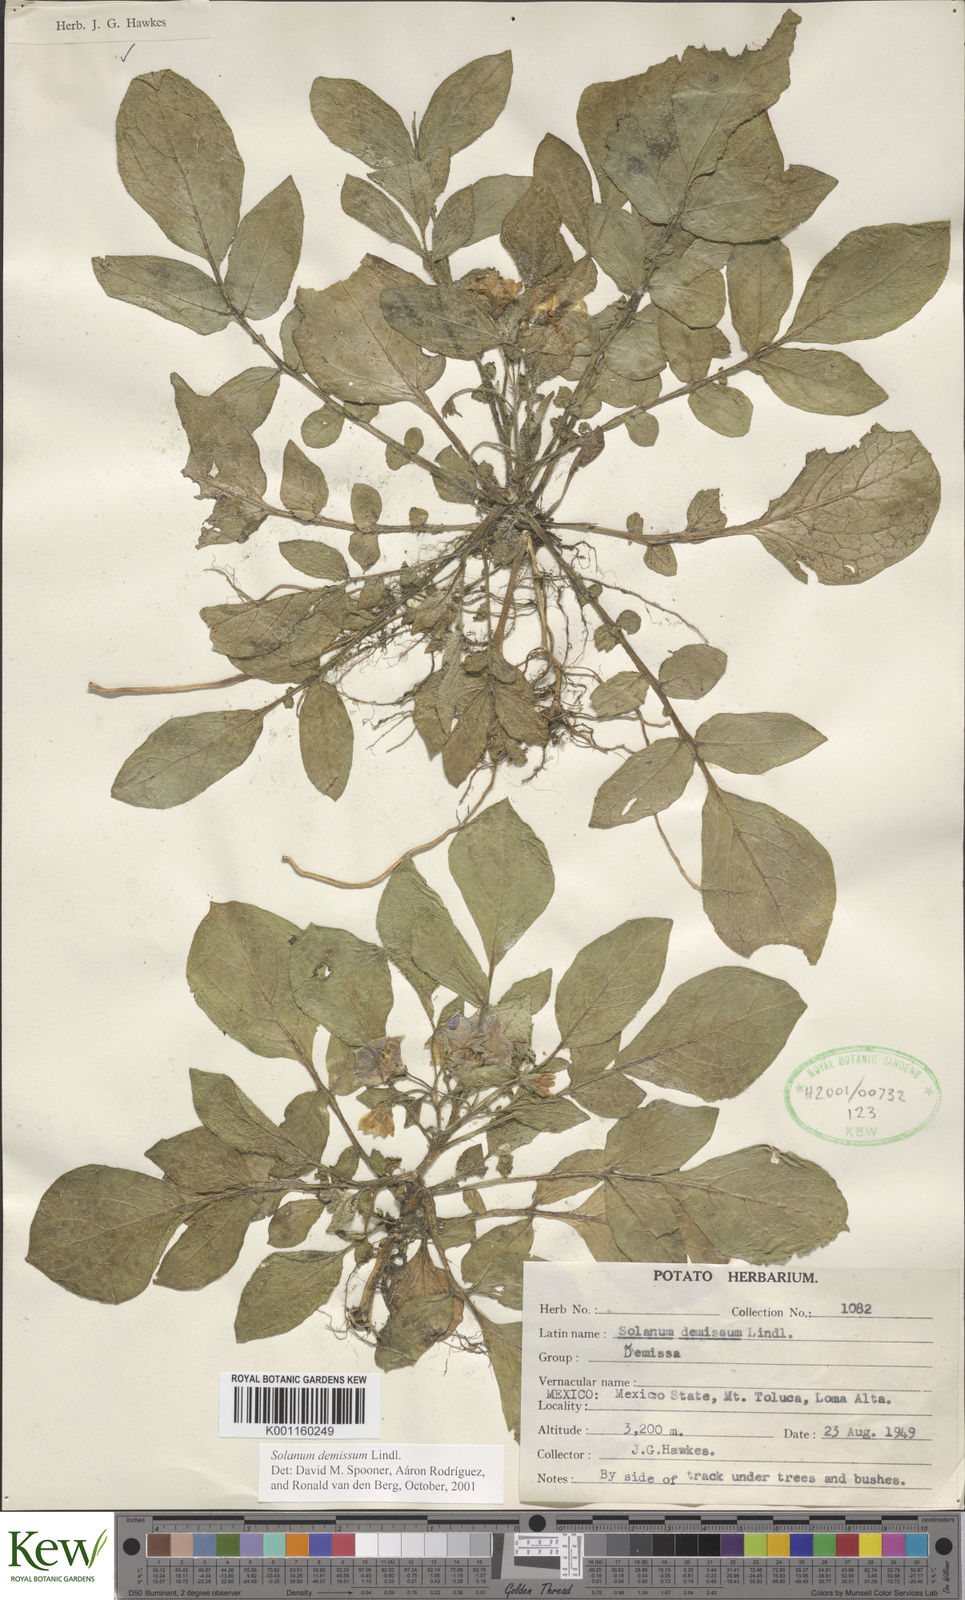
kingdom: Plantae
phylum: Tracheophyta
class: Magnoliopsida
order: Solanales
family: Solanaceae
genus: Solanum
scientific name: Solanum demissum
